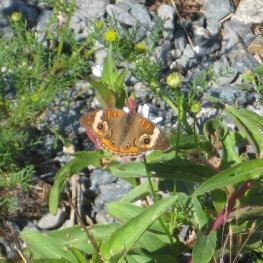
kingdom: Animalia
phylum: Arthropoda
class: Insecta
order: Lepidoptera
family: Nymphalidae
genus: Junonia
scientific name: Junonia coenia
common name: Common Buckeye
